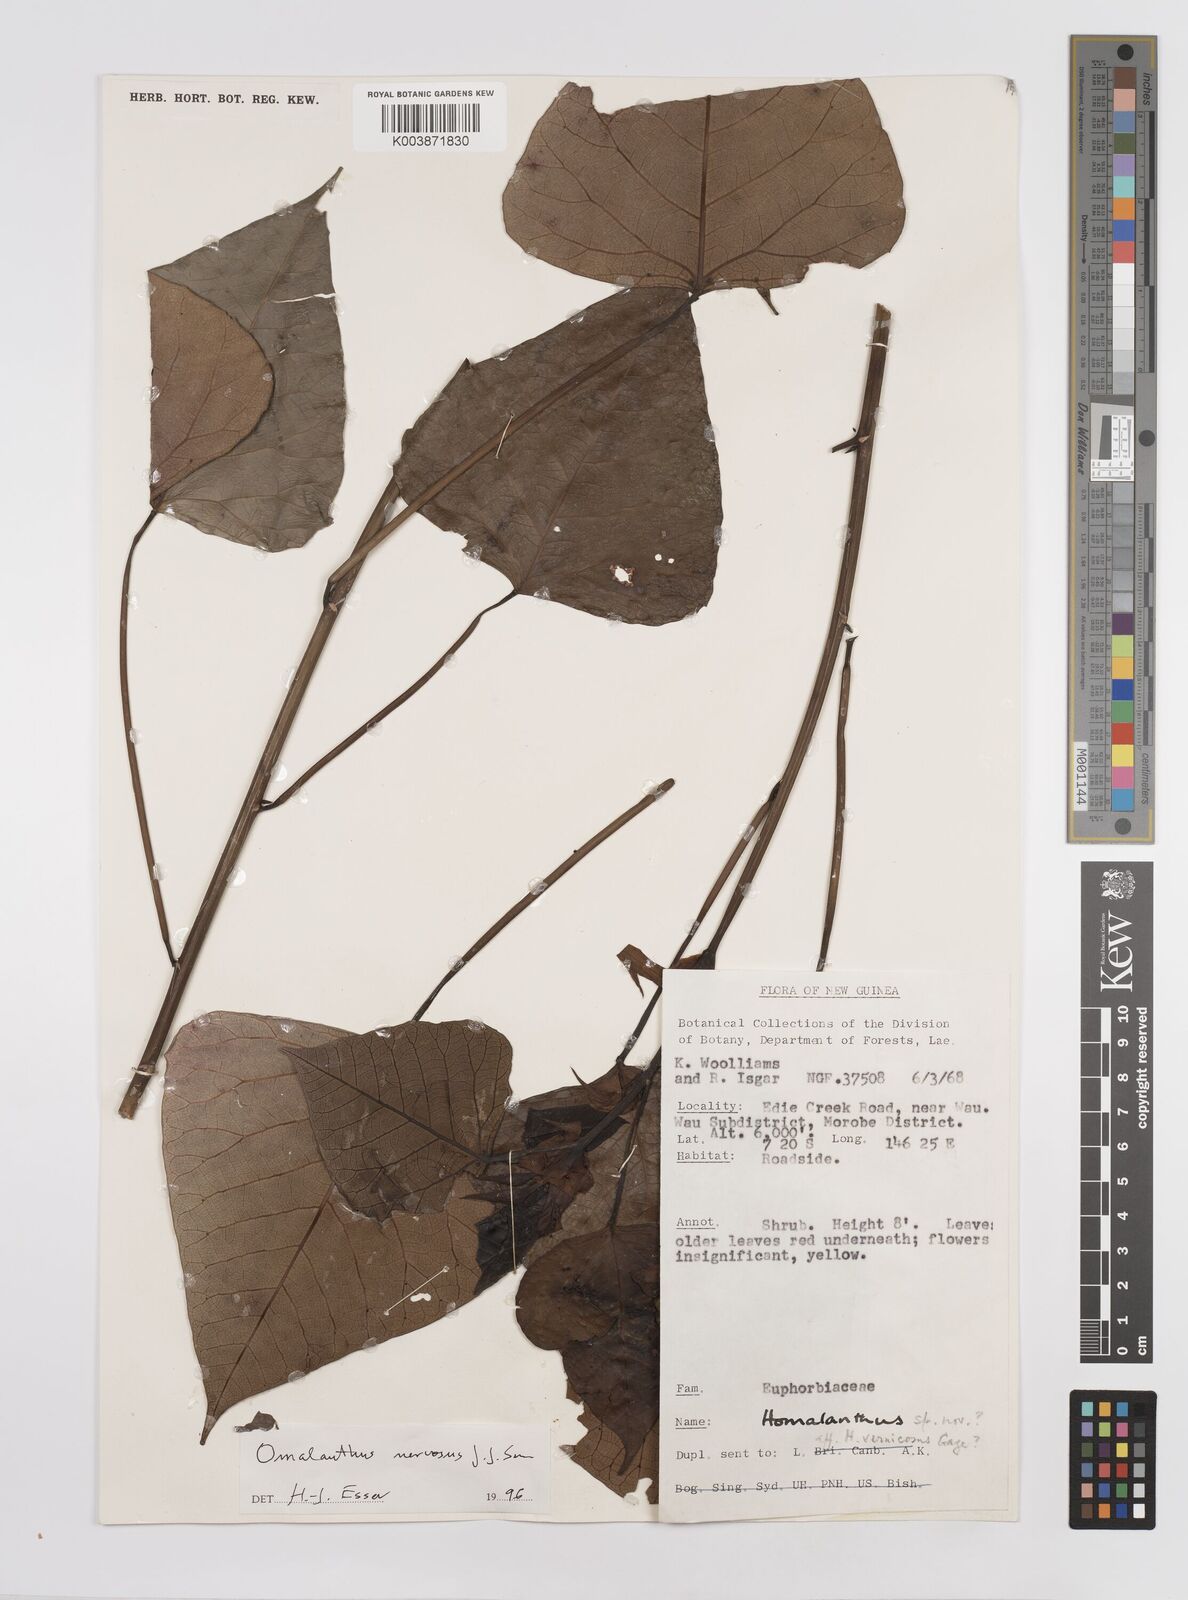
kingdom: Plantae
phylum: Tracheophyta
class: Magnoliopsida
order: Malpighiales
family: Euphorbiaceae
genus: Homalanthus
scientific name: Homalanthus nervosus
